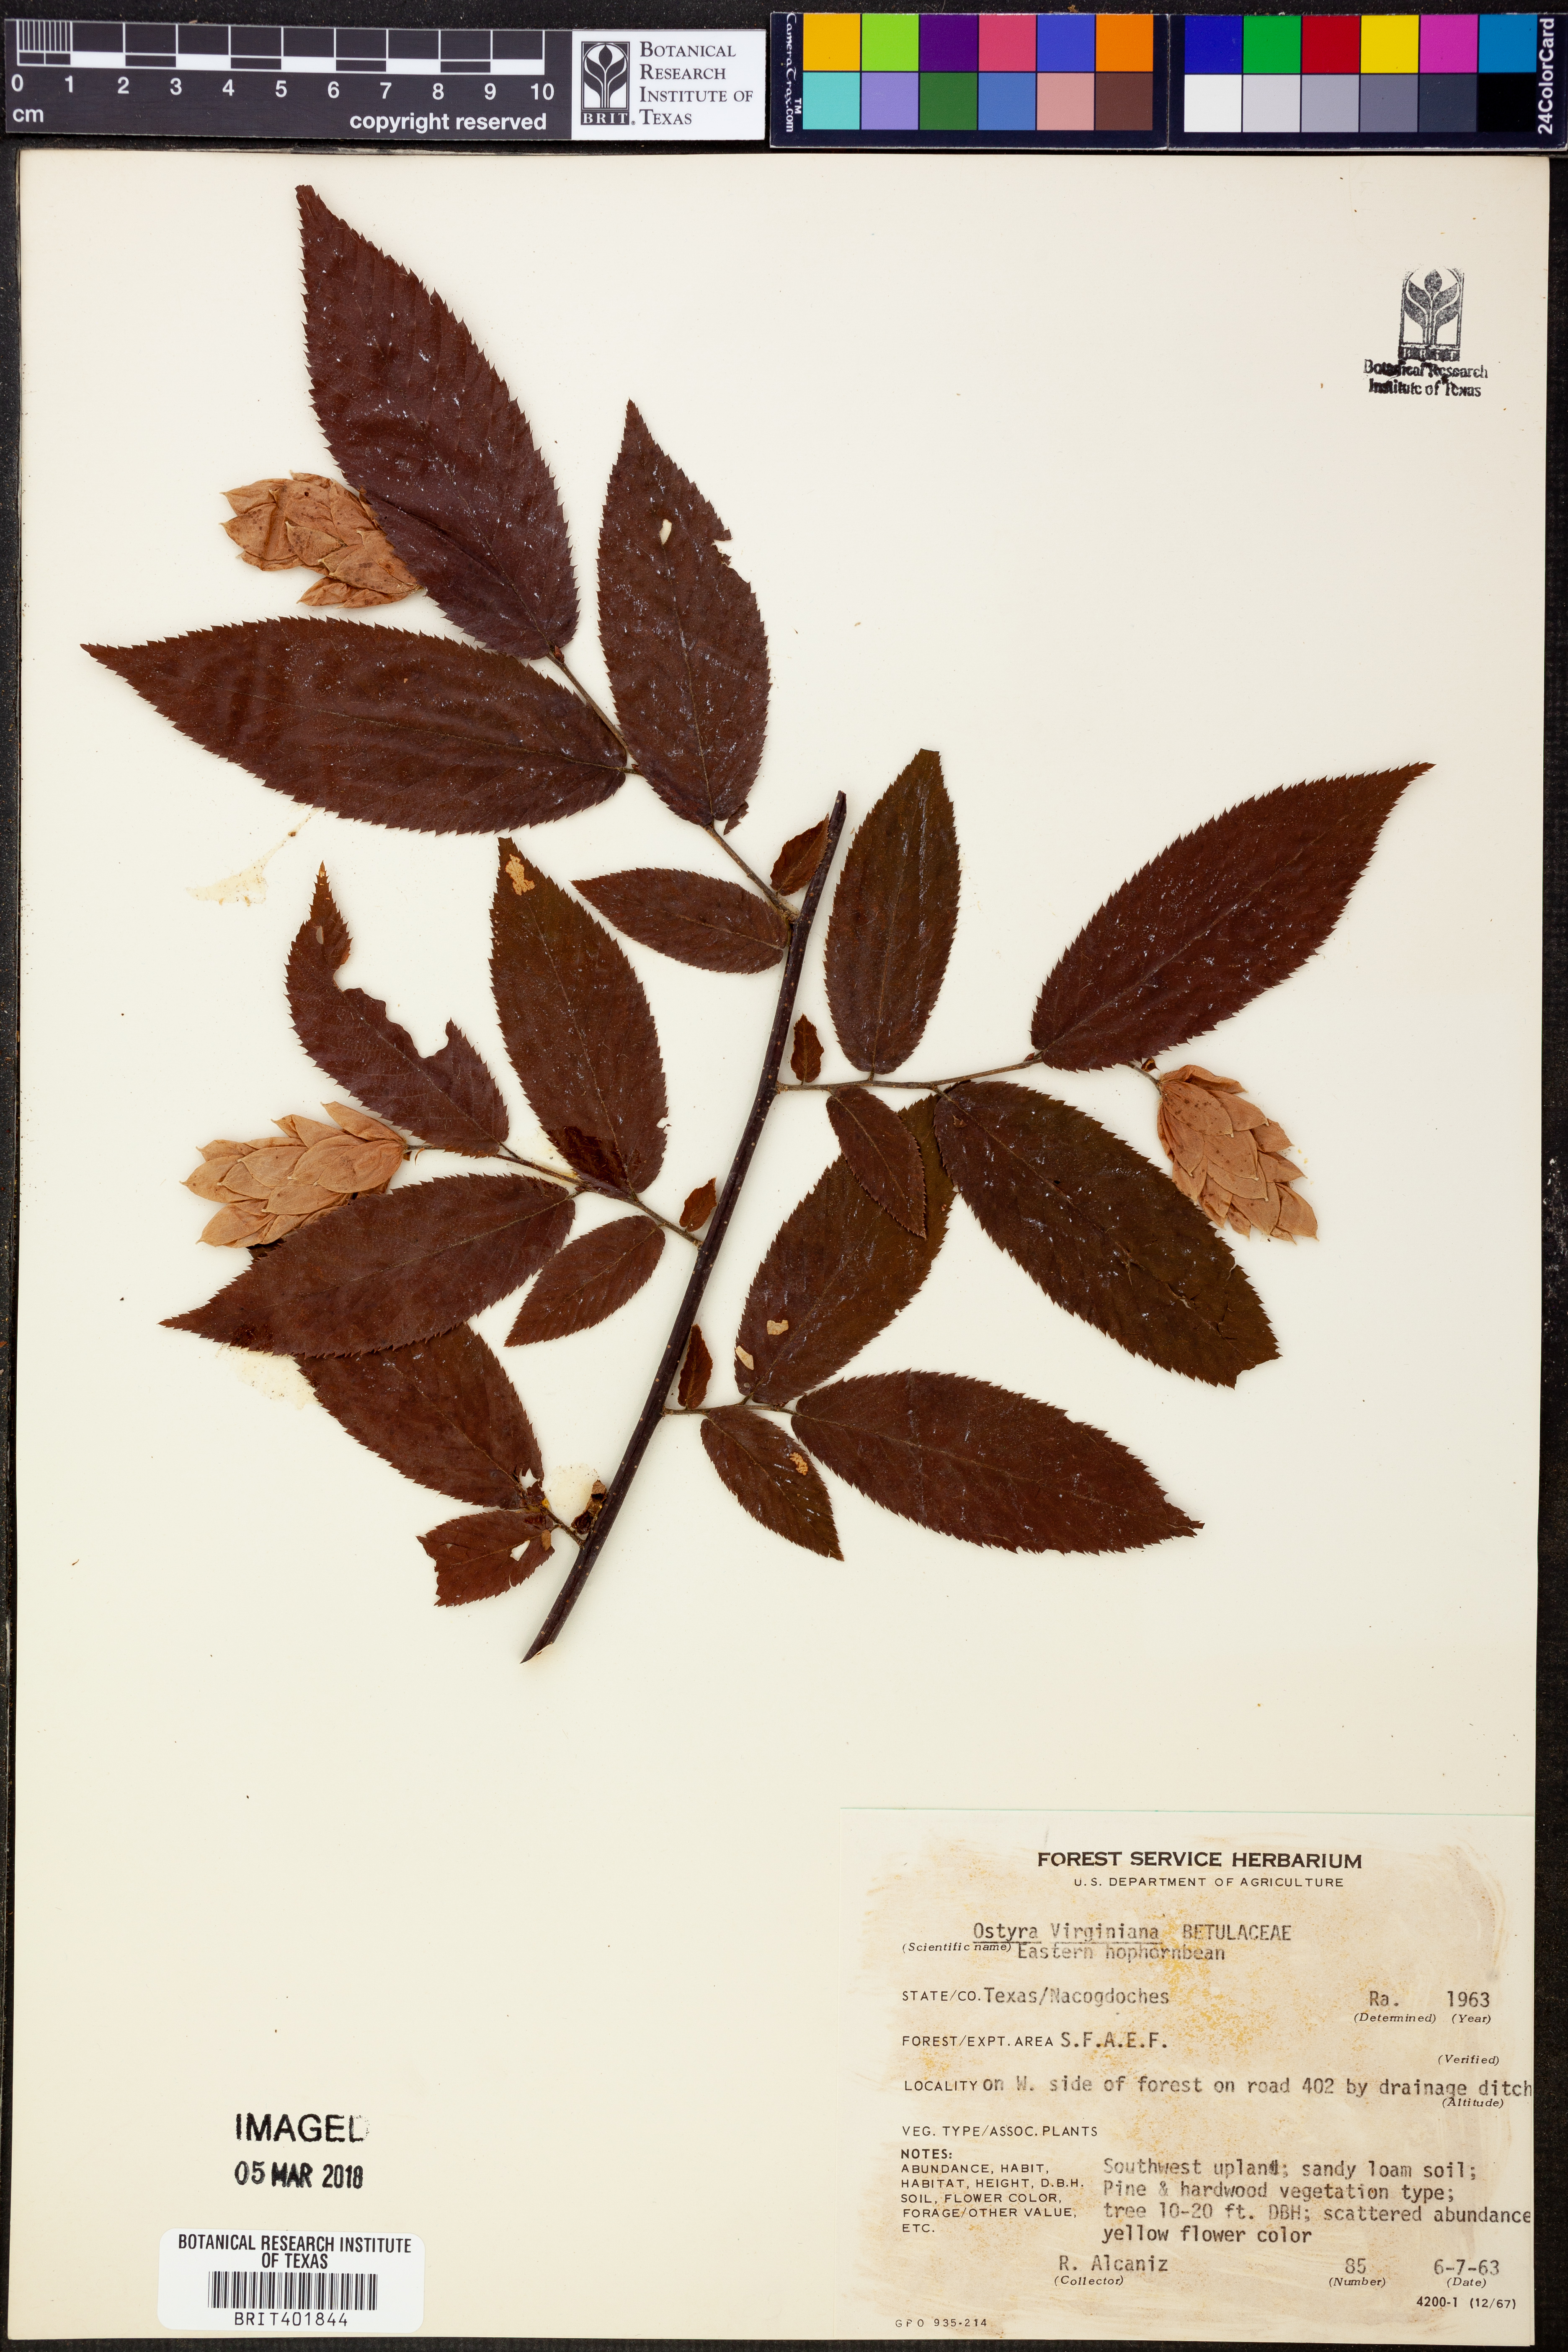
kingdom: Plantae
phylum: Tracheophyta
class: Magnoliopsida
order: Fagales
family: Betulaceae
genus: Ostrya
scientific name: Ostrya virginiana
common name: Ironwood
